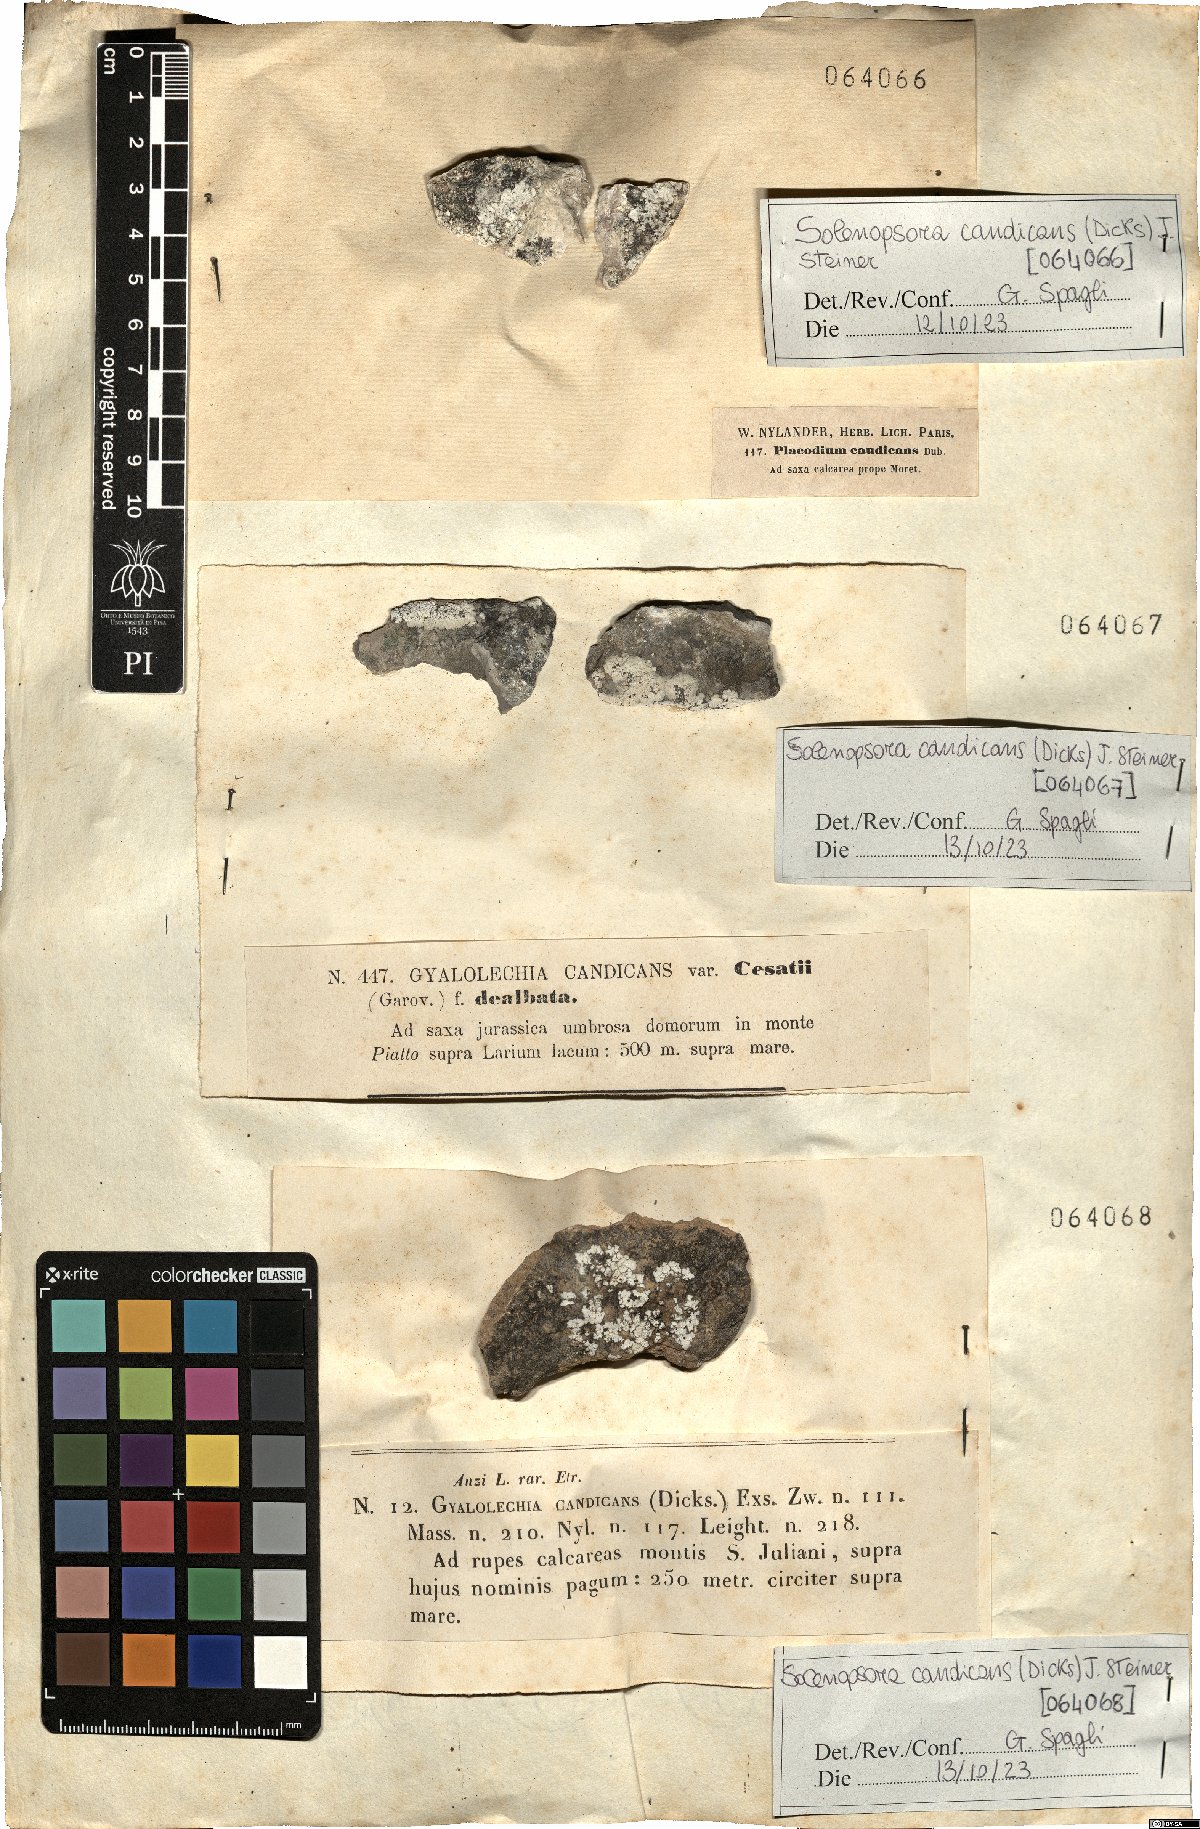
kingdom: Fungi
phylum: Ascomycota
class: Lecanoromycetes
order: Lecanorales
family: Catillariaceae
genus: Solenopsora
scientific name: Solenopsora candicans
